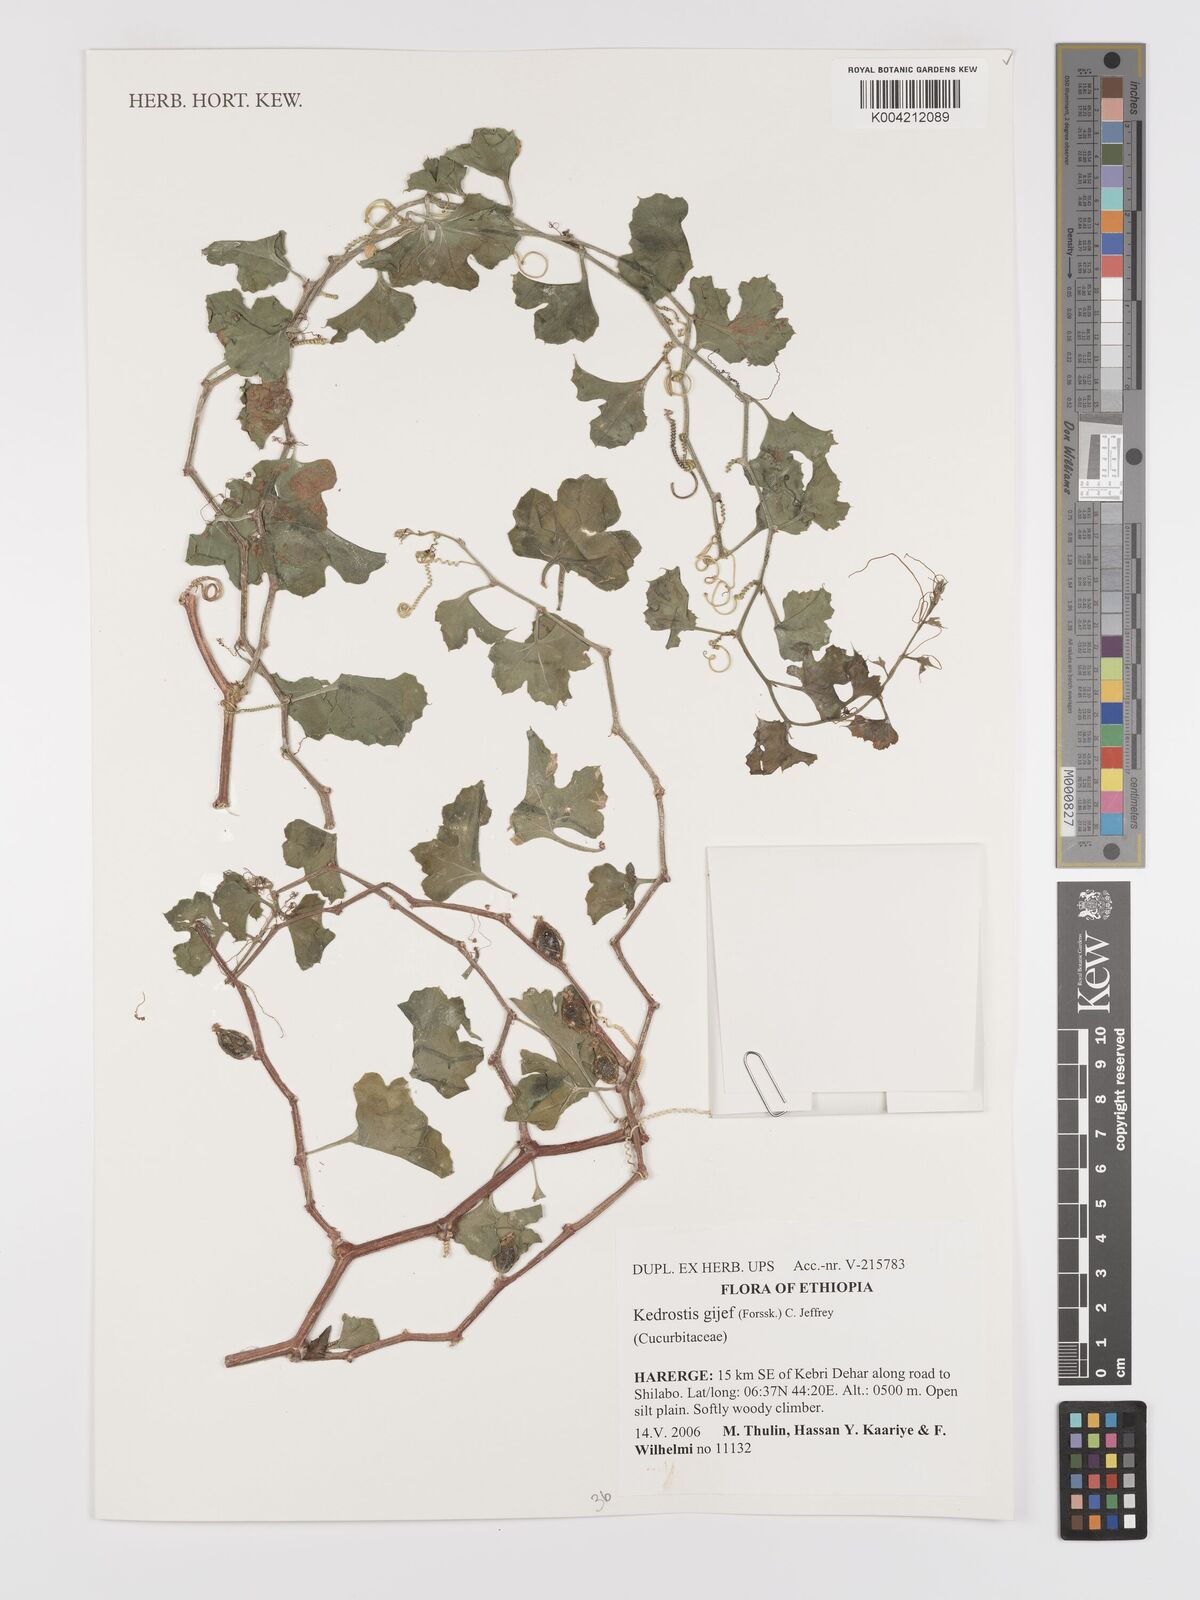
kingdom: Plantae
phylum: Tracheophyta
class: Magnoliopsida
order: Cucurbitales
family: Cucurbitaceae
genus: Kedrostis
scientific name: Kedrostis gijef
